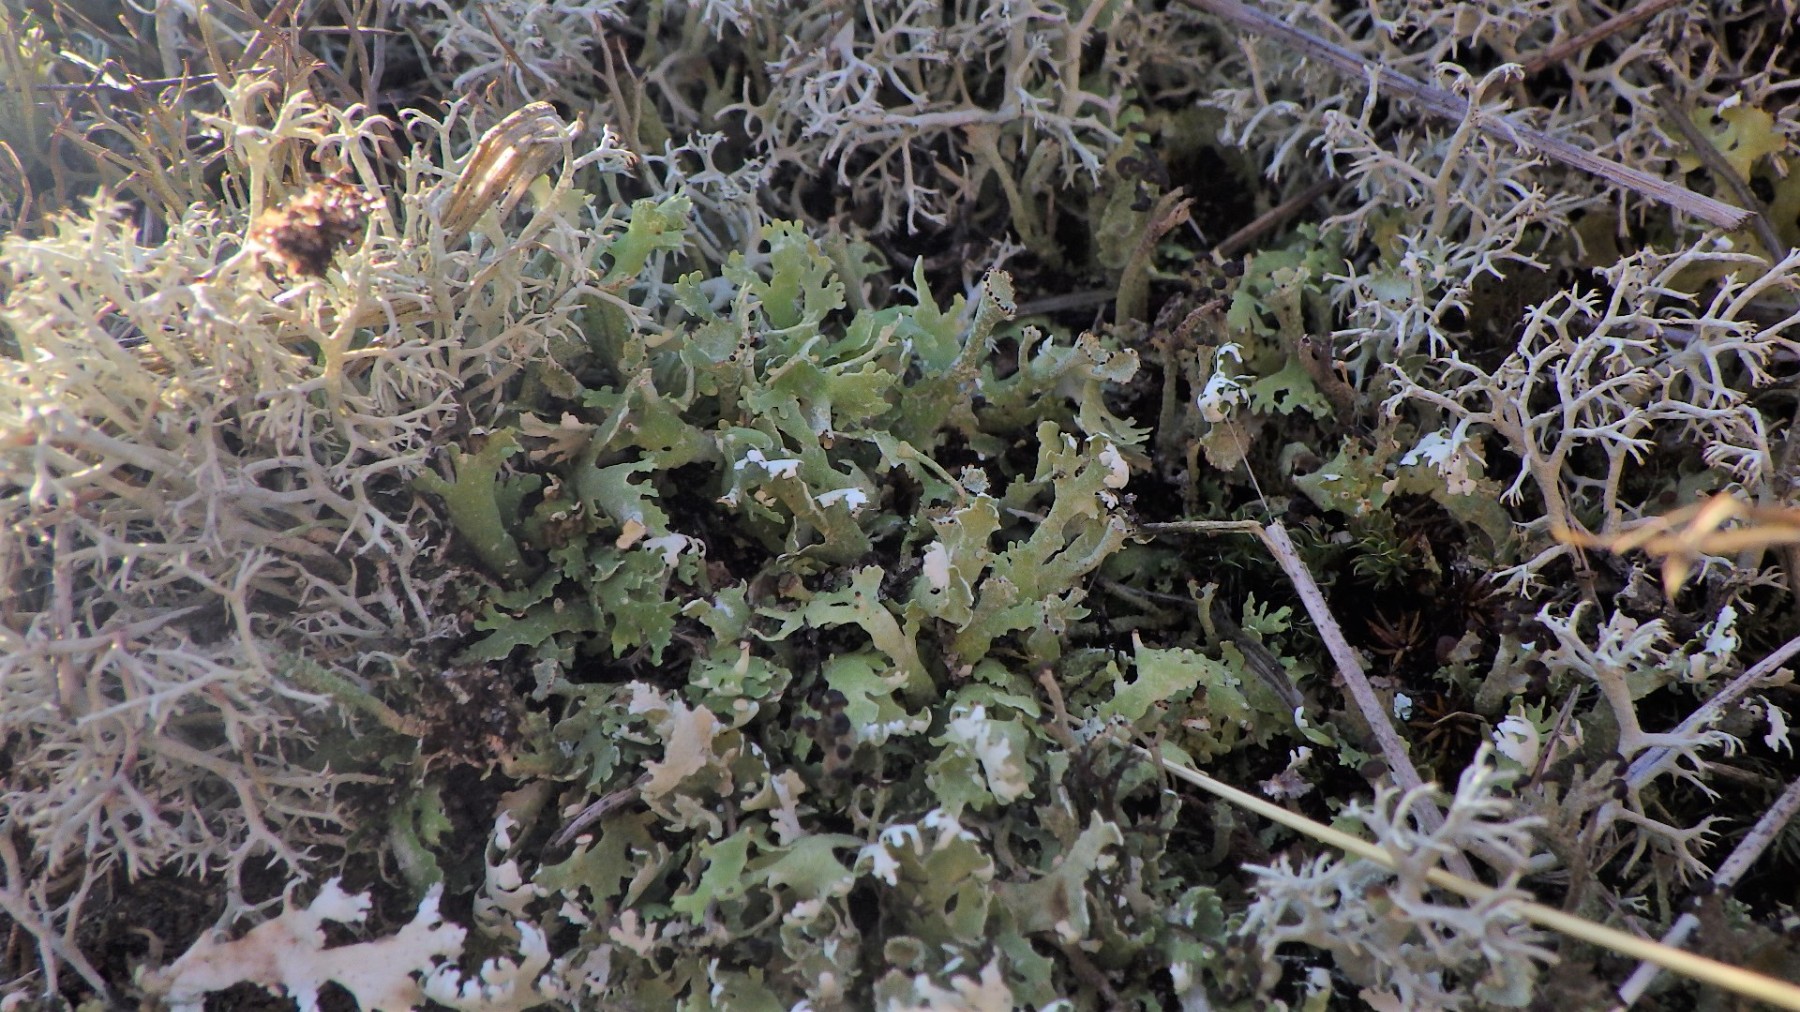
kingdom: Fungi
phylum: Ascomycota
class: Lecanoromycetes
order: Lecanorales
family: Cladoniaceae
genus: Cladonia
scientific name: Cladonia foliacea
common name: fliget bægerlav
